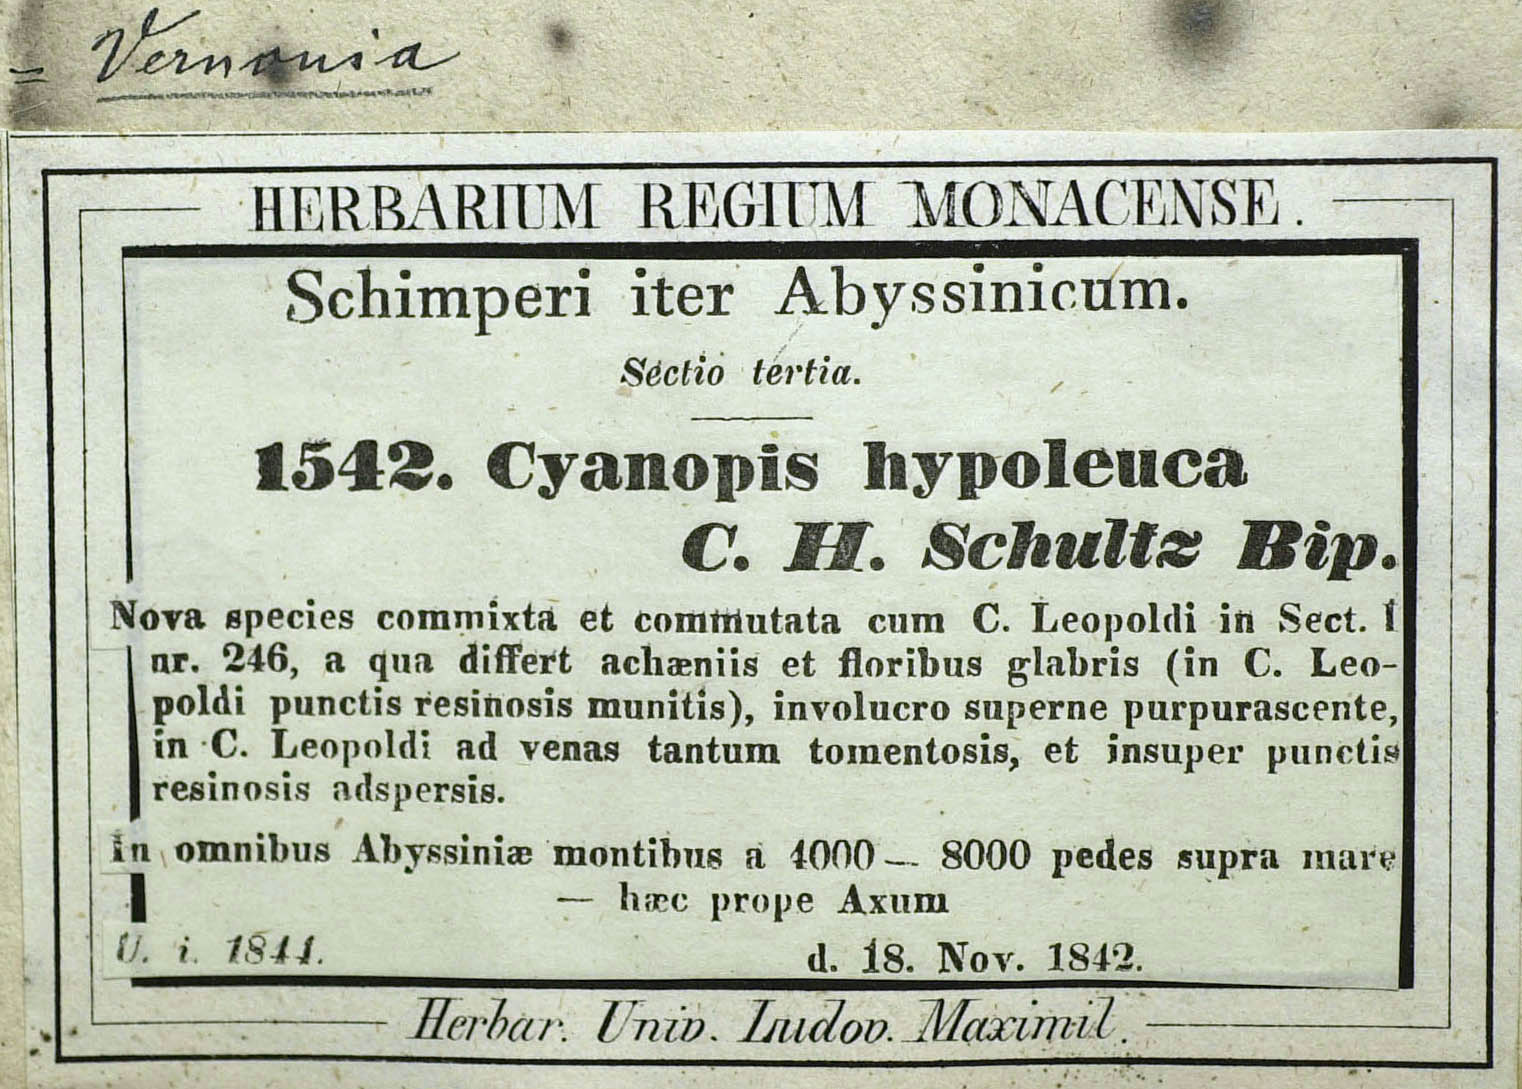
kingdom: Plantae
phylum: Tracheophyta
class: Magnoliopsida
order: Asterales
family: Asteraceae
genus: Vernonia
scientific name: Vernonia bipontini
